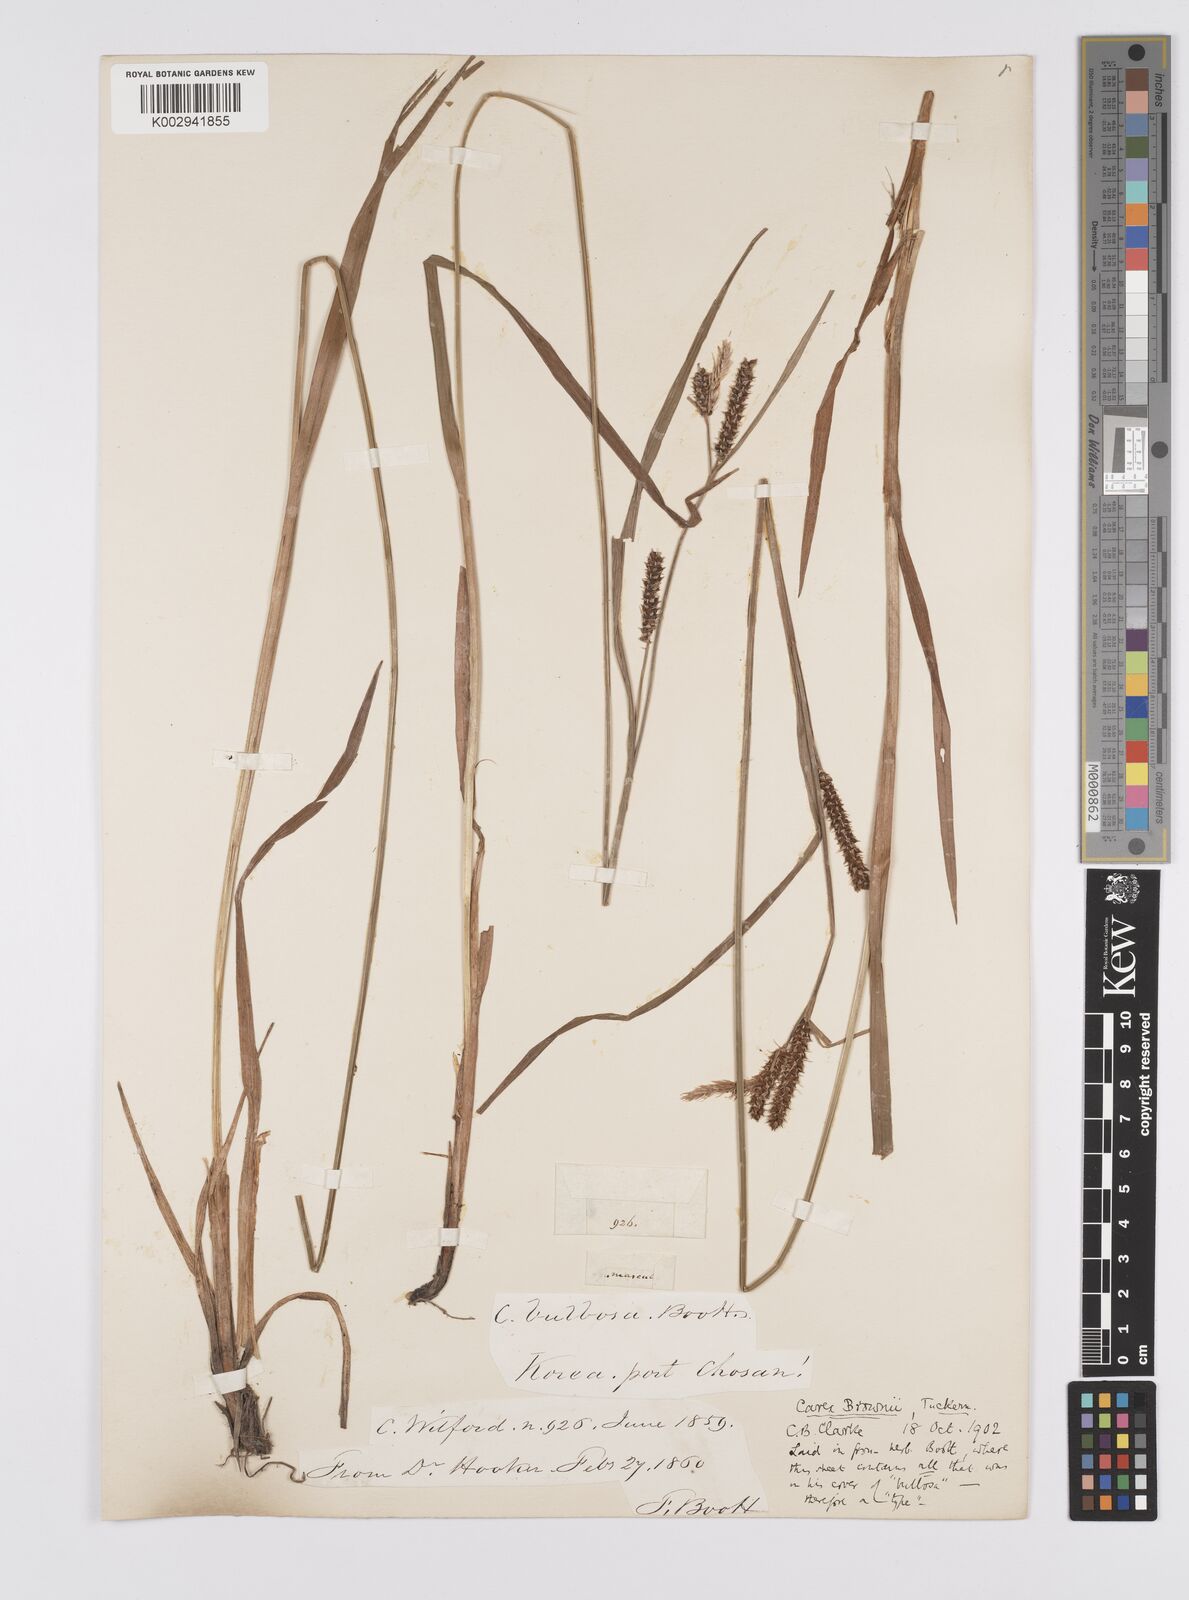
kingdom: Plantae
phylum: Tracheophyta
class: Liliopsida
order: Poales
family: Cyperaceae
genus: Carex
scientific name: Carex brownii
